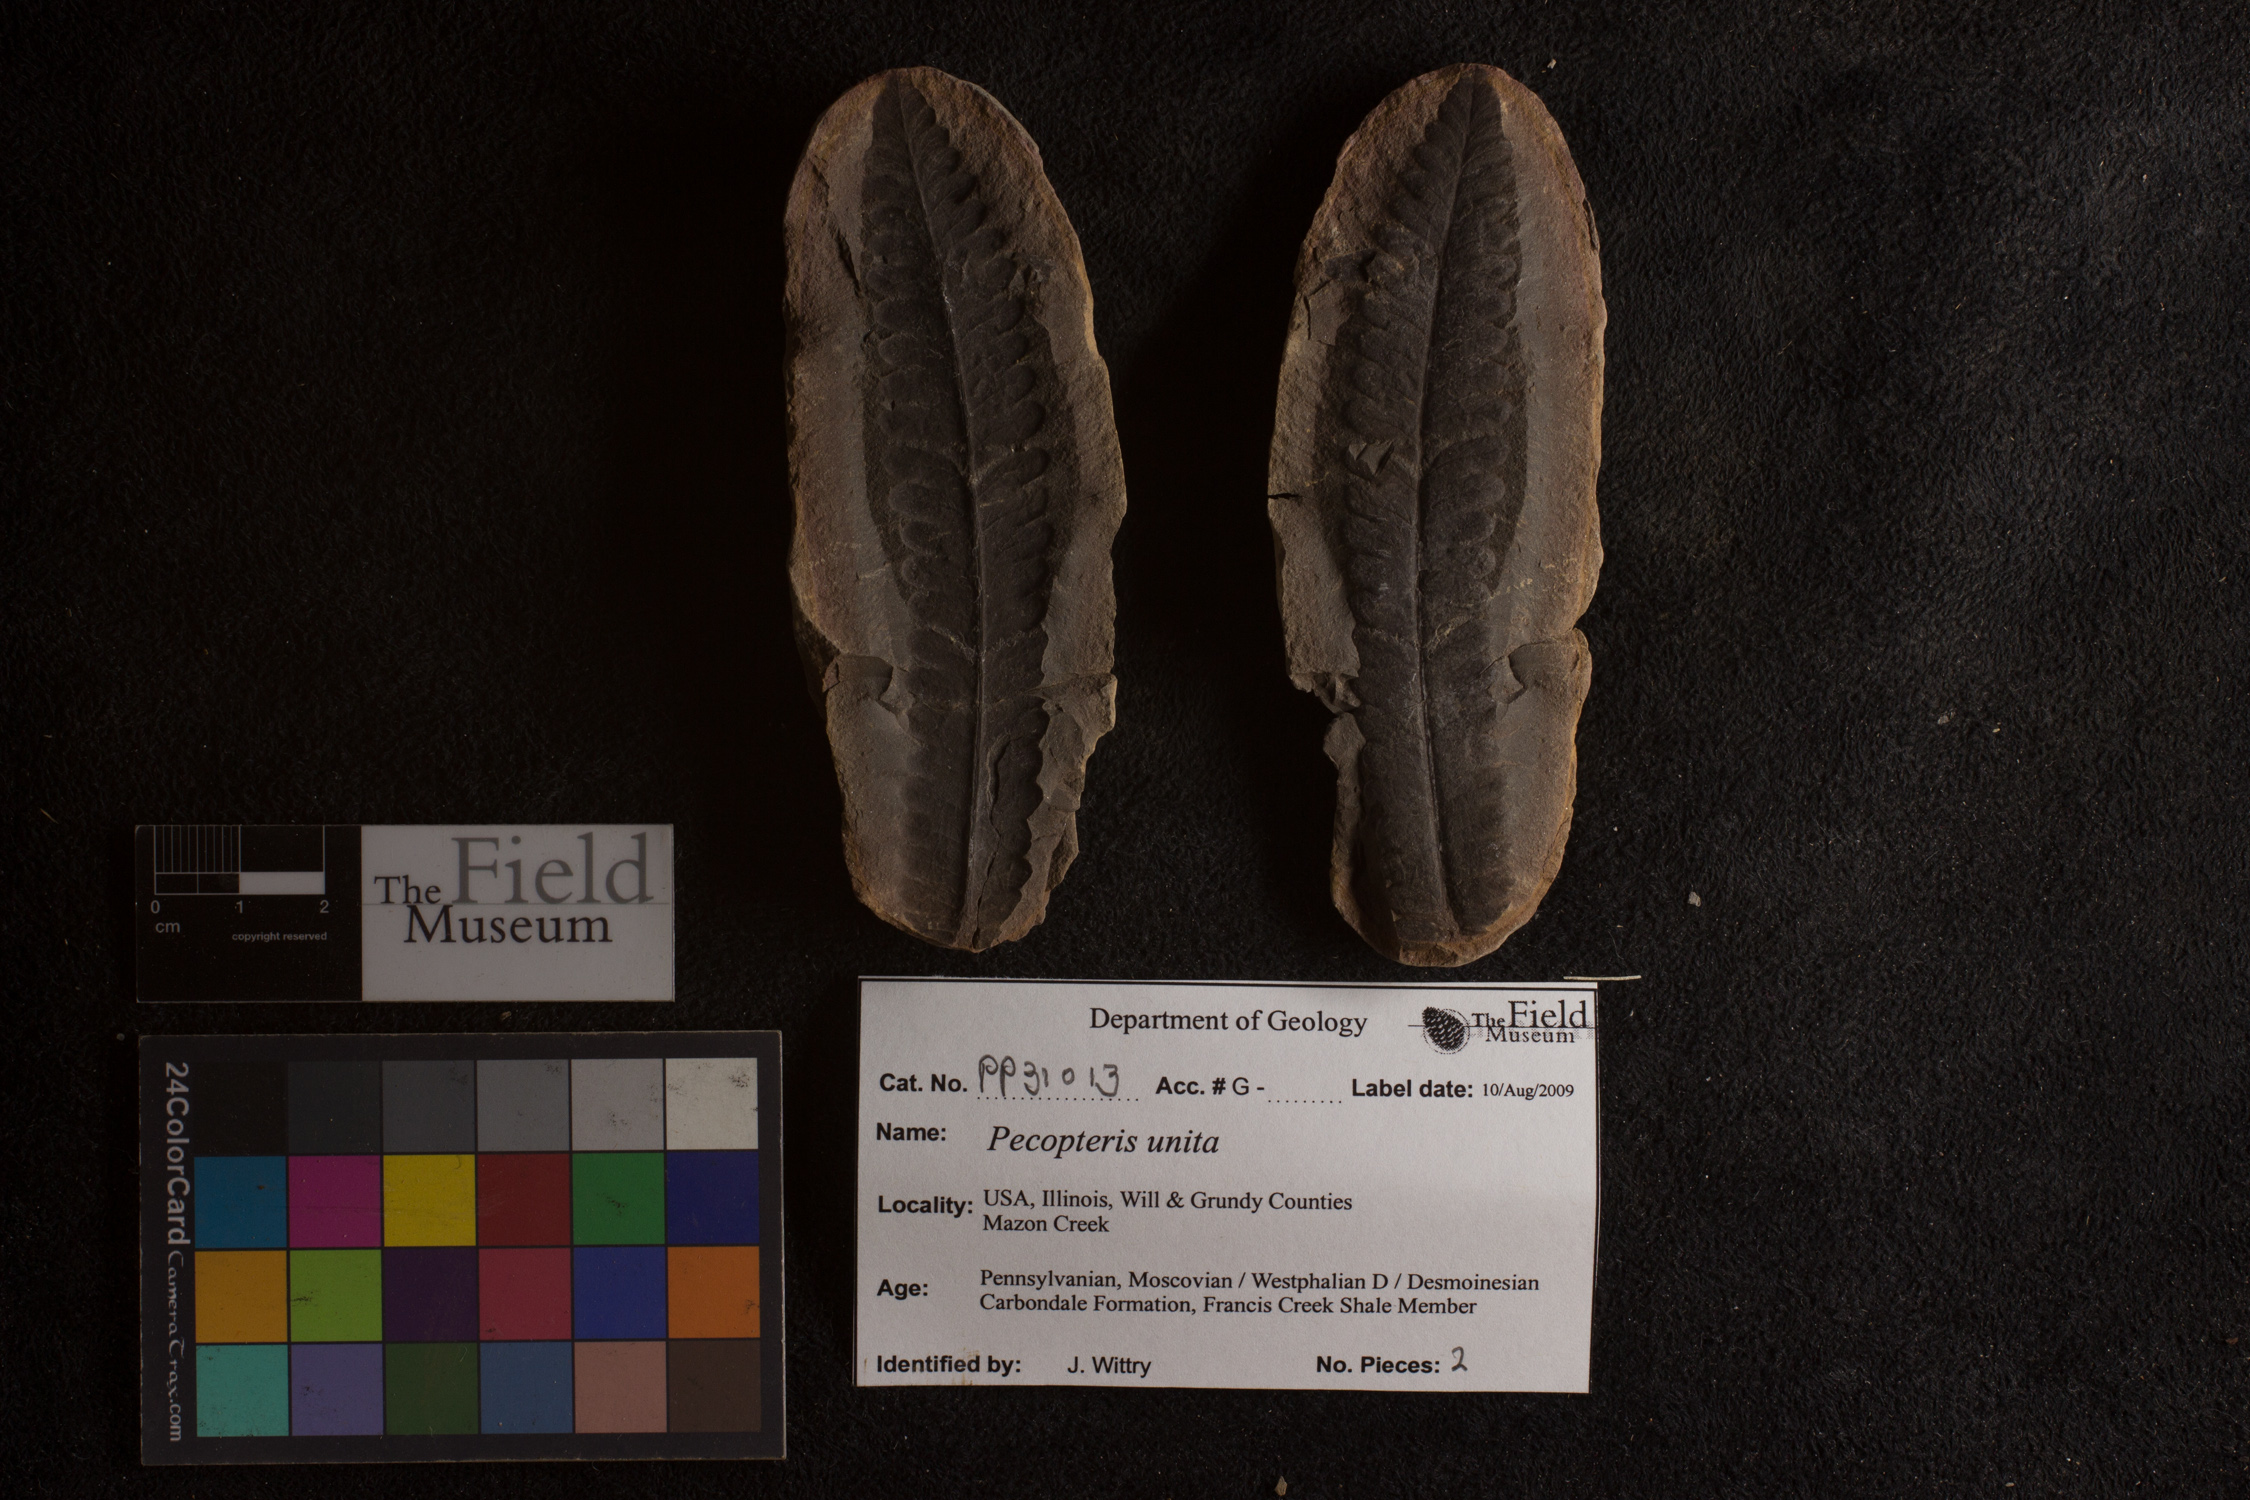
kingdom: Plantae
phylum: Tracheophyta
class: Polypodiopsida
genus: Diplazites
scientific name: Diplazites
